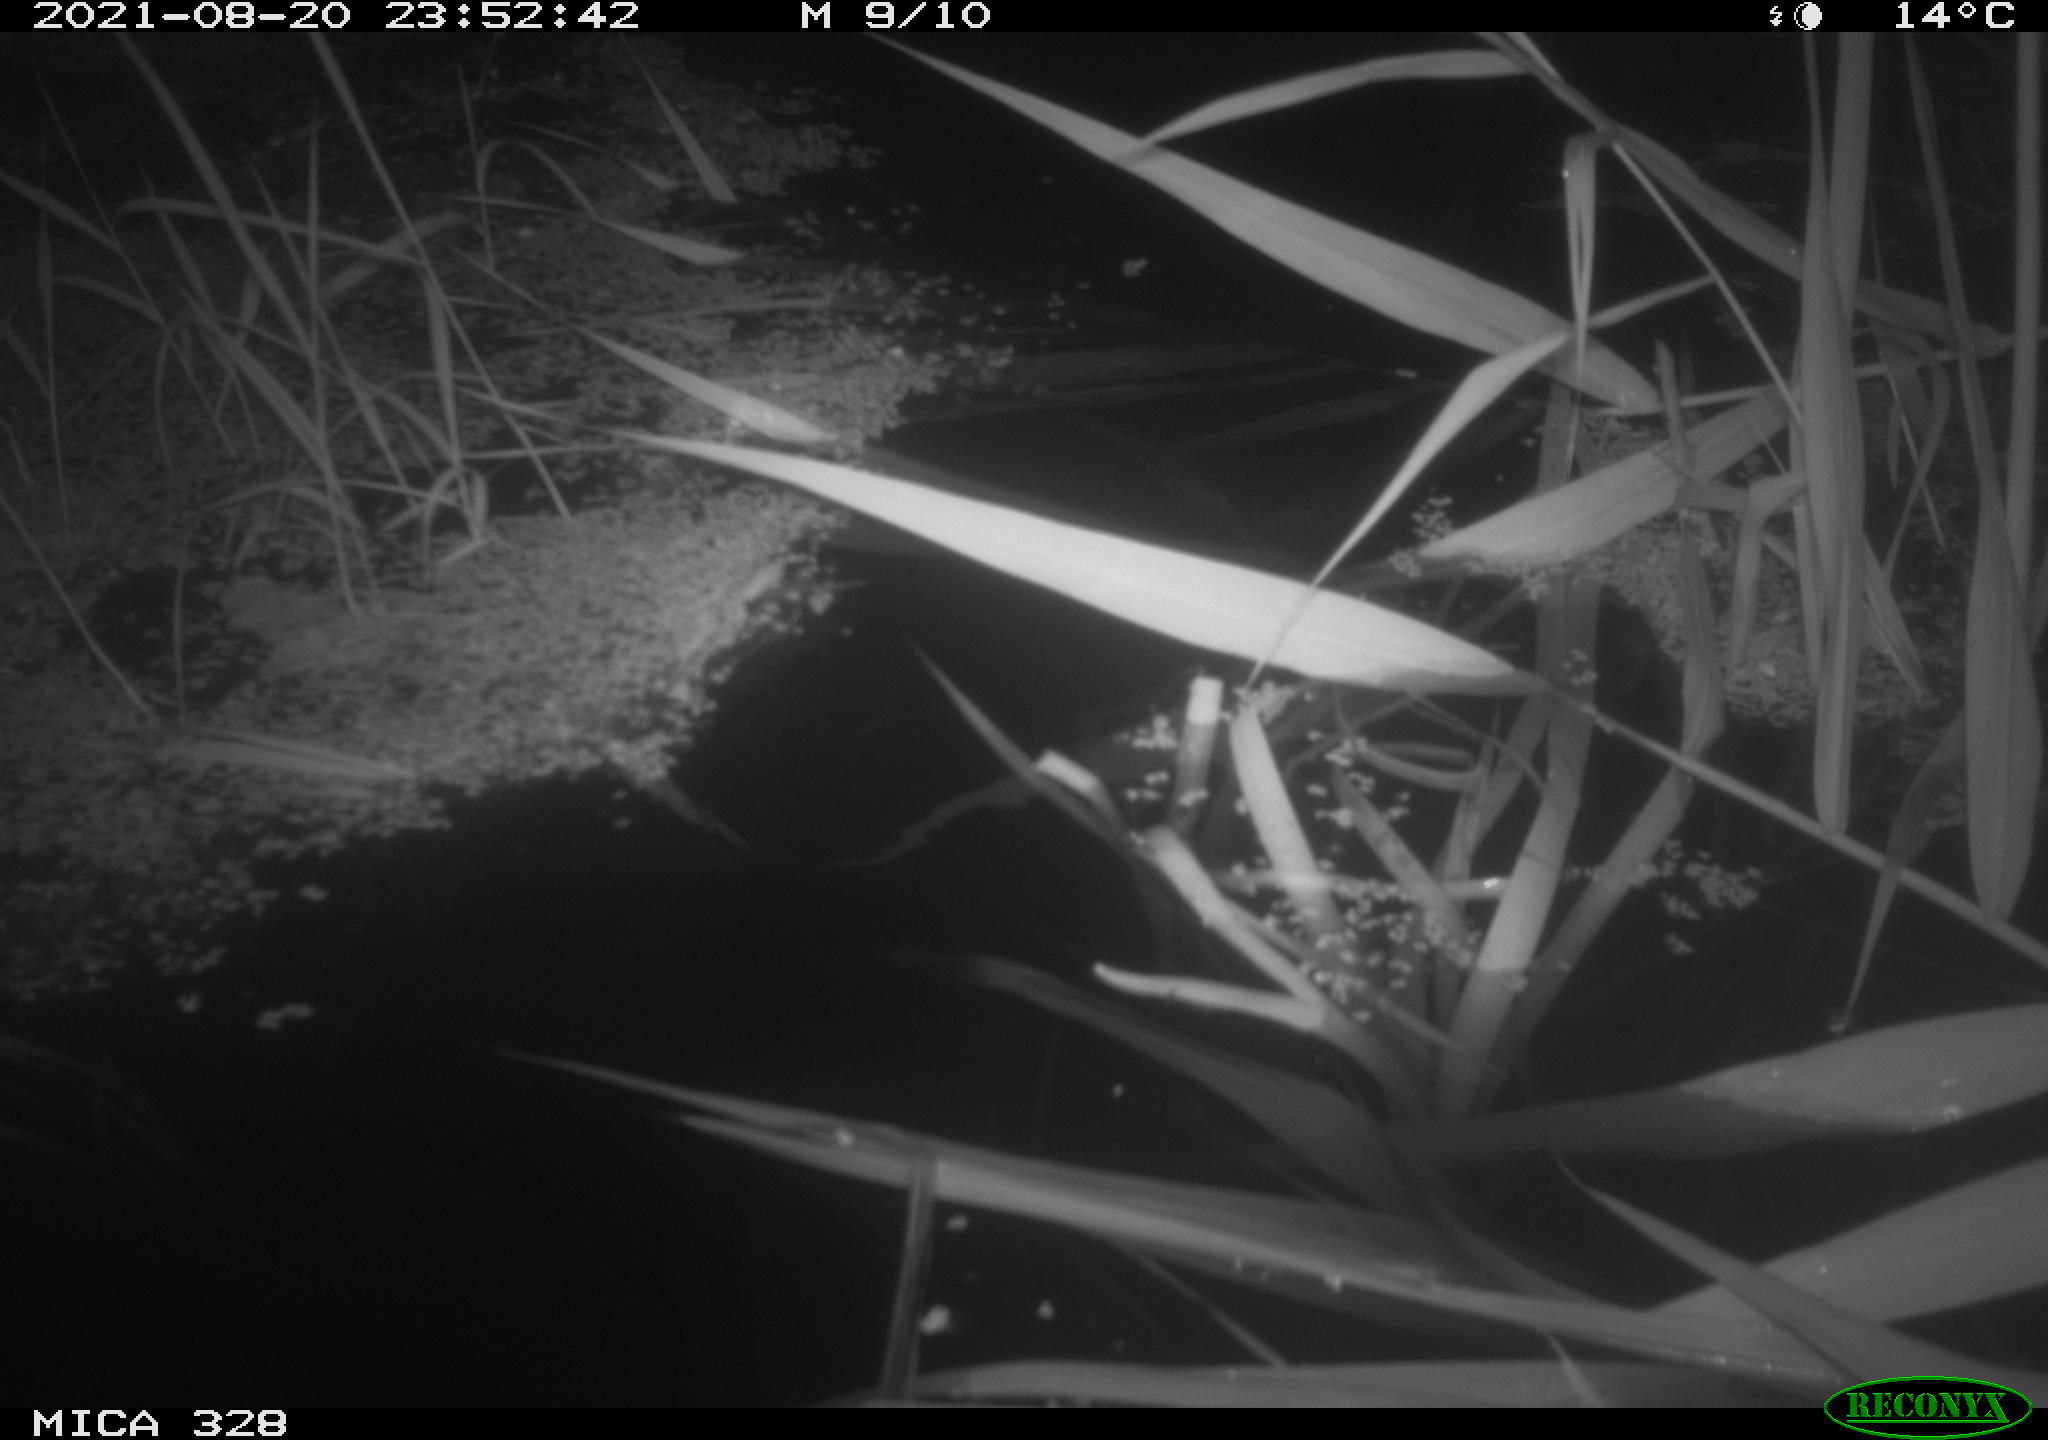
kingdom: Animalia
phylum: Chordata
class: Mammalia
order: Rodentia
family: Cricetidae
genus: Ondatra
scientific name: Ondatra zibethicus
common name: Muskrat
